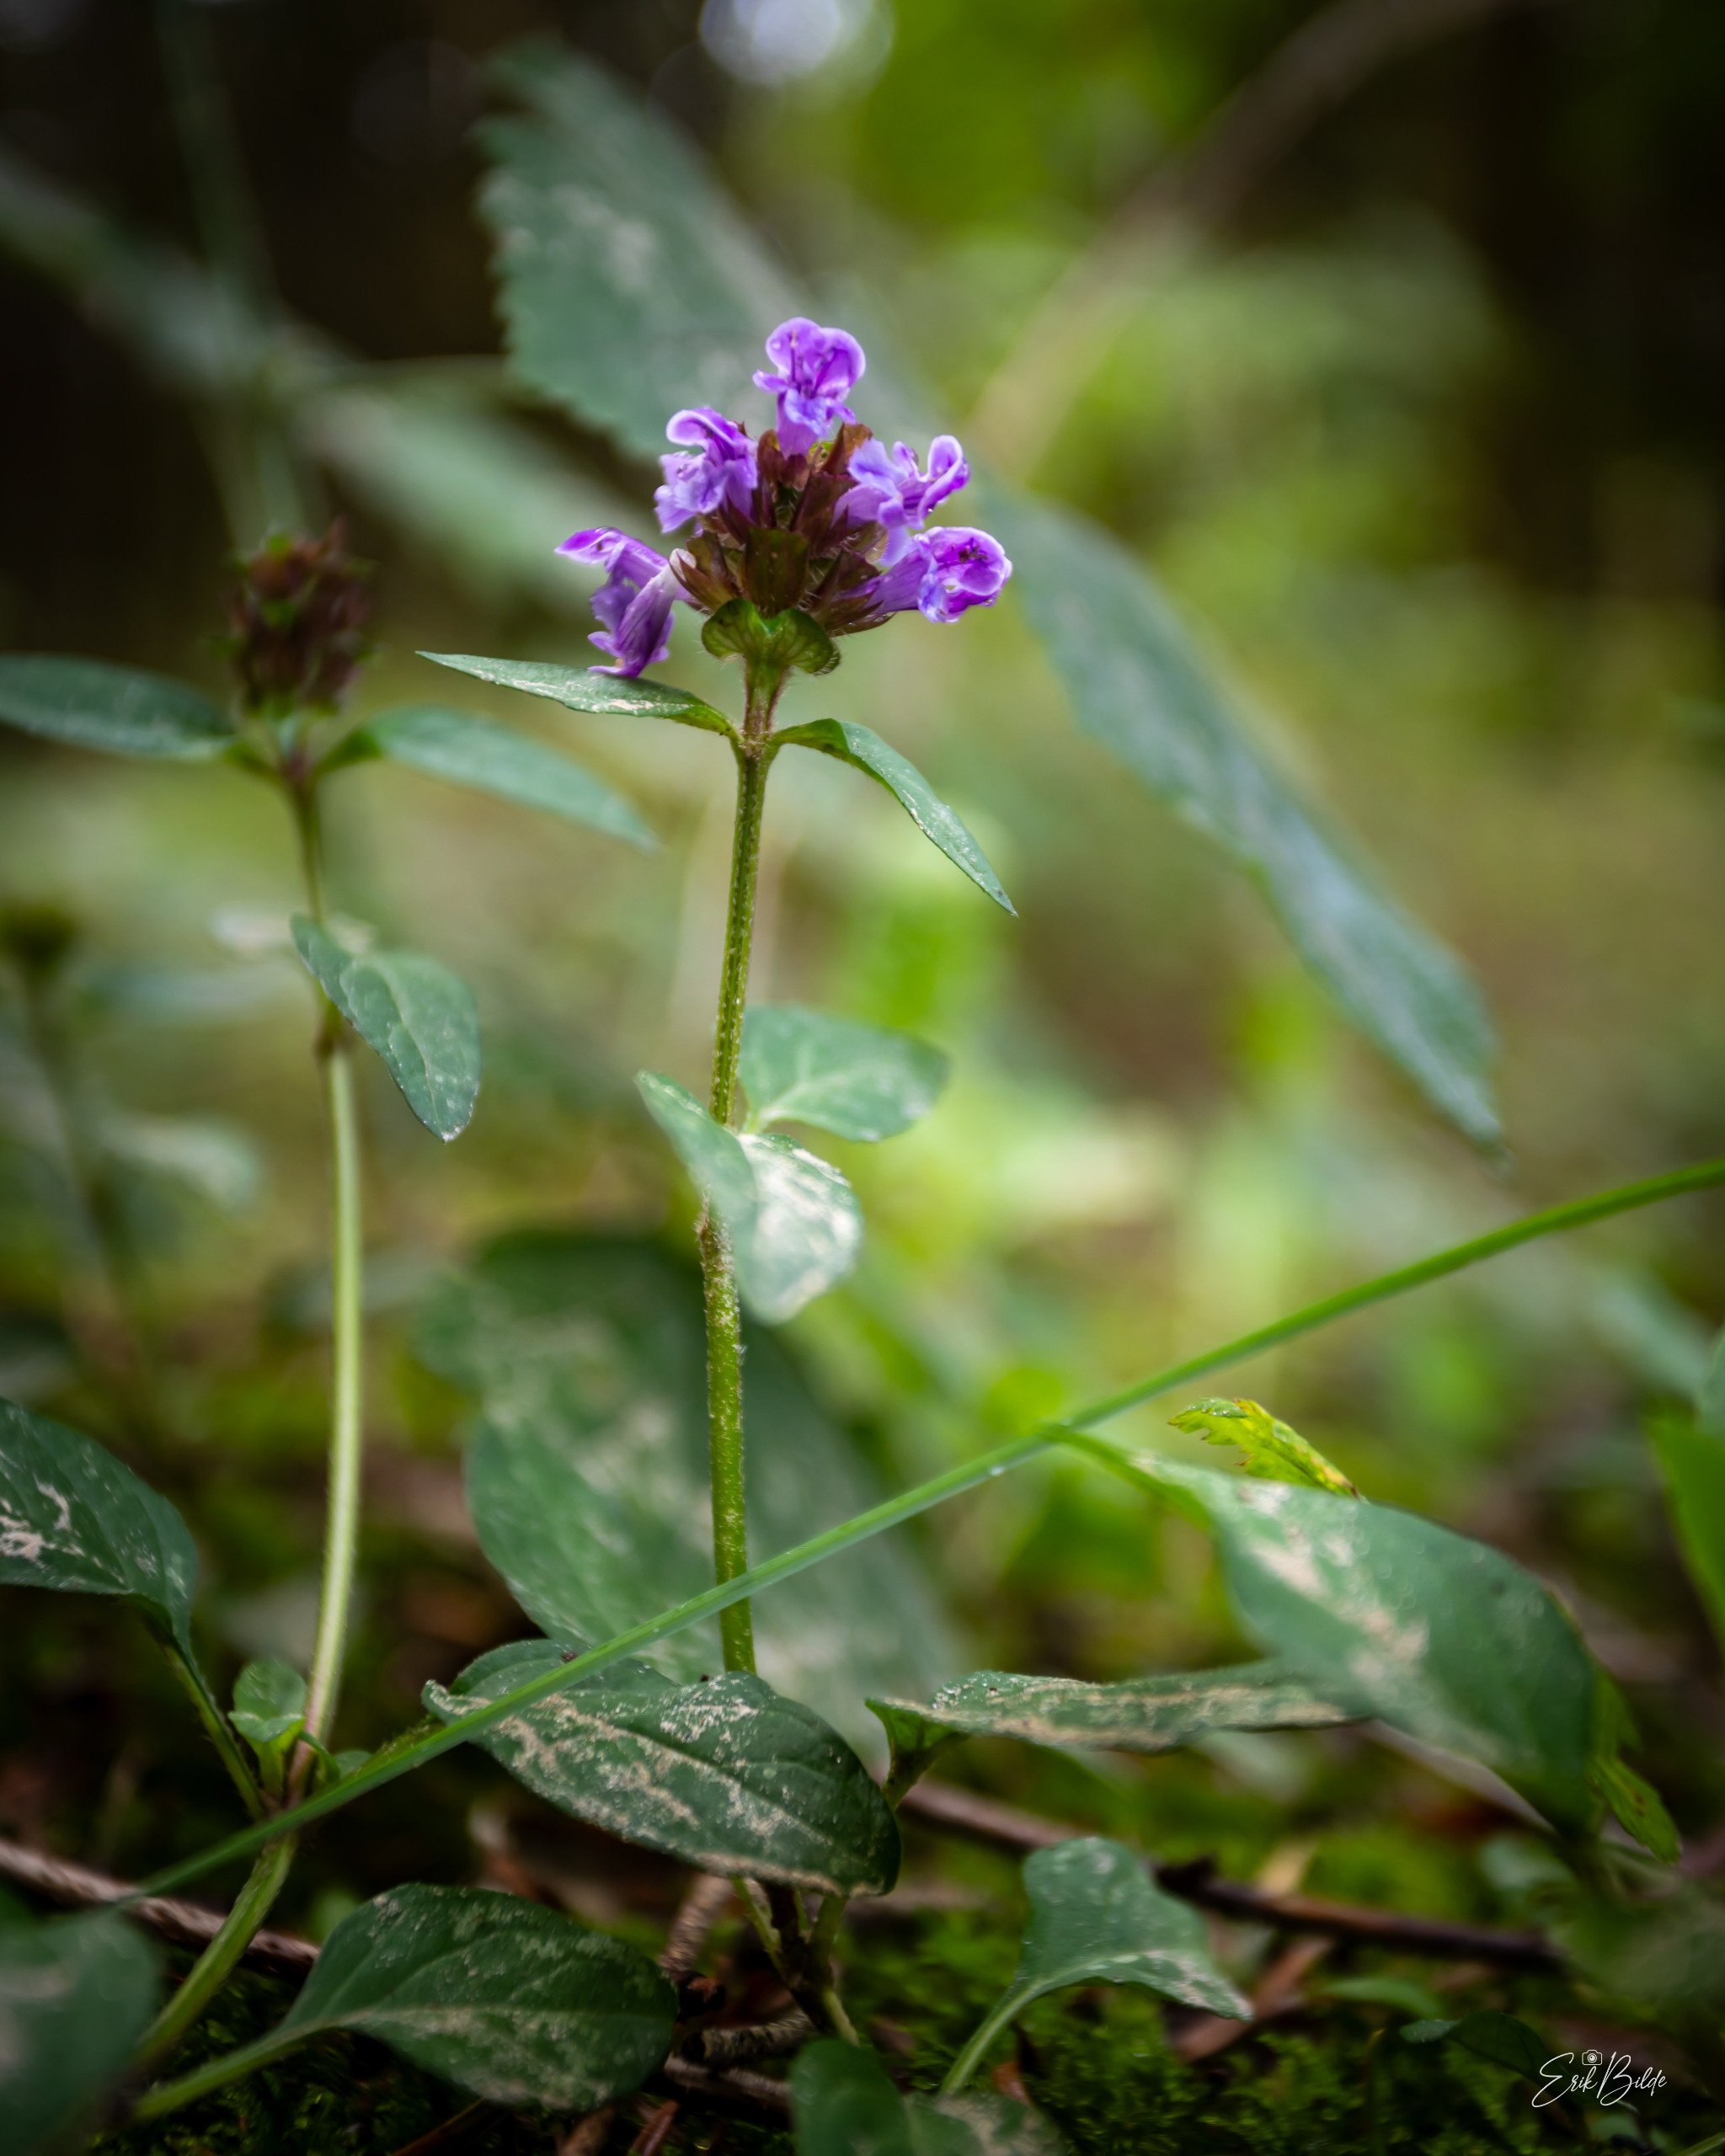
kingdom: Plantae
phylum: Tracheophyta
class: Magnoliopsida
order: Lamiales
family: Lamiaceae
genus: Prunella
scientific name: Prunella vulgaris
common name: Almindelig brunelle
